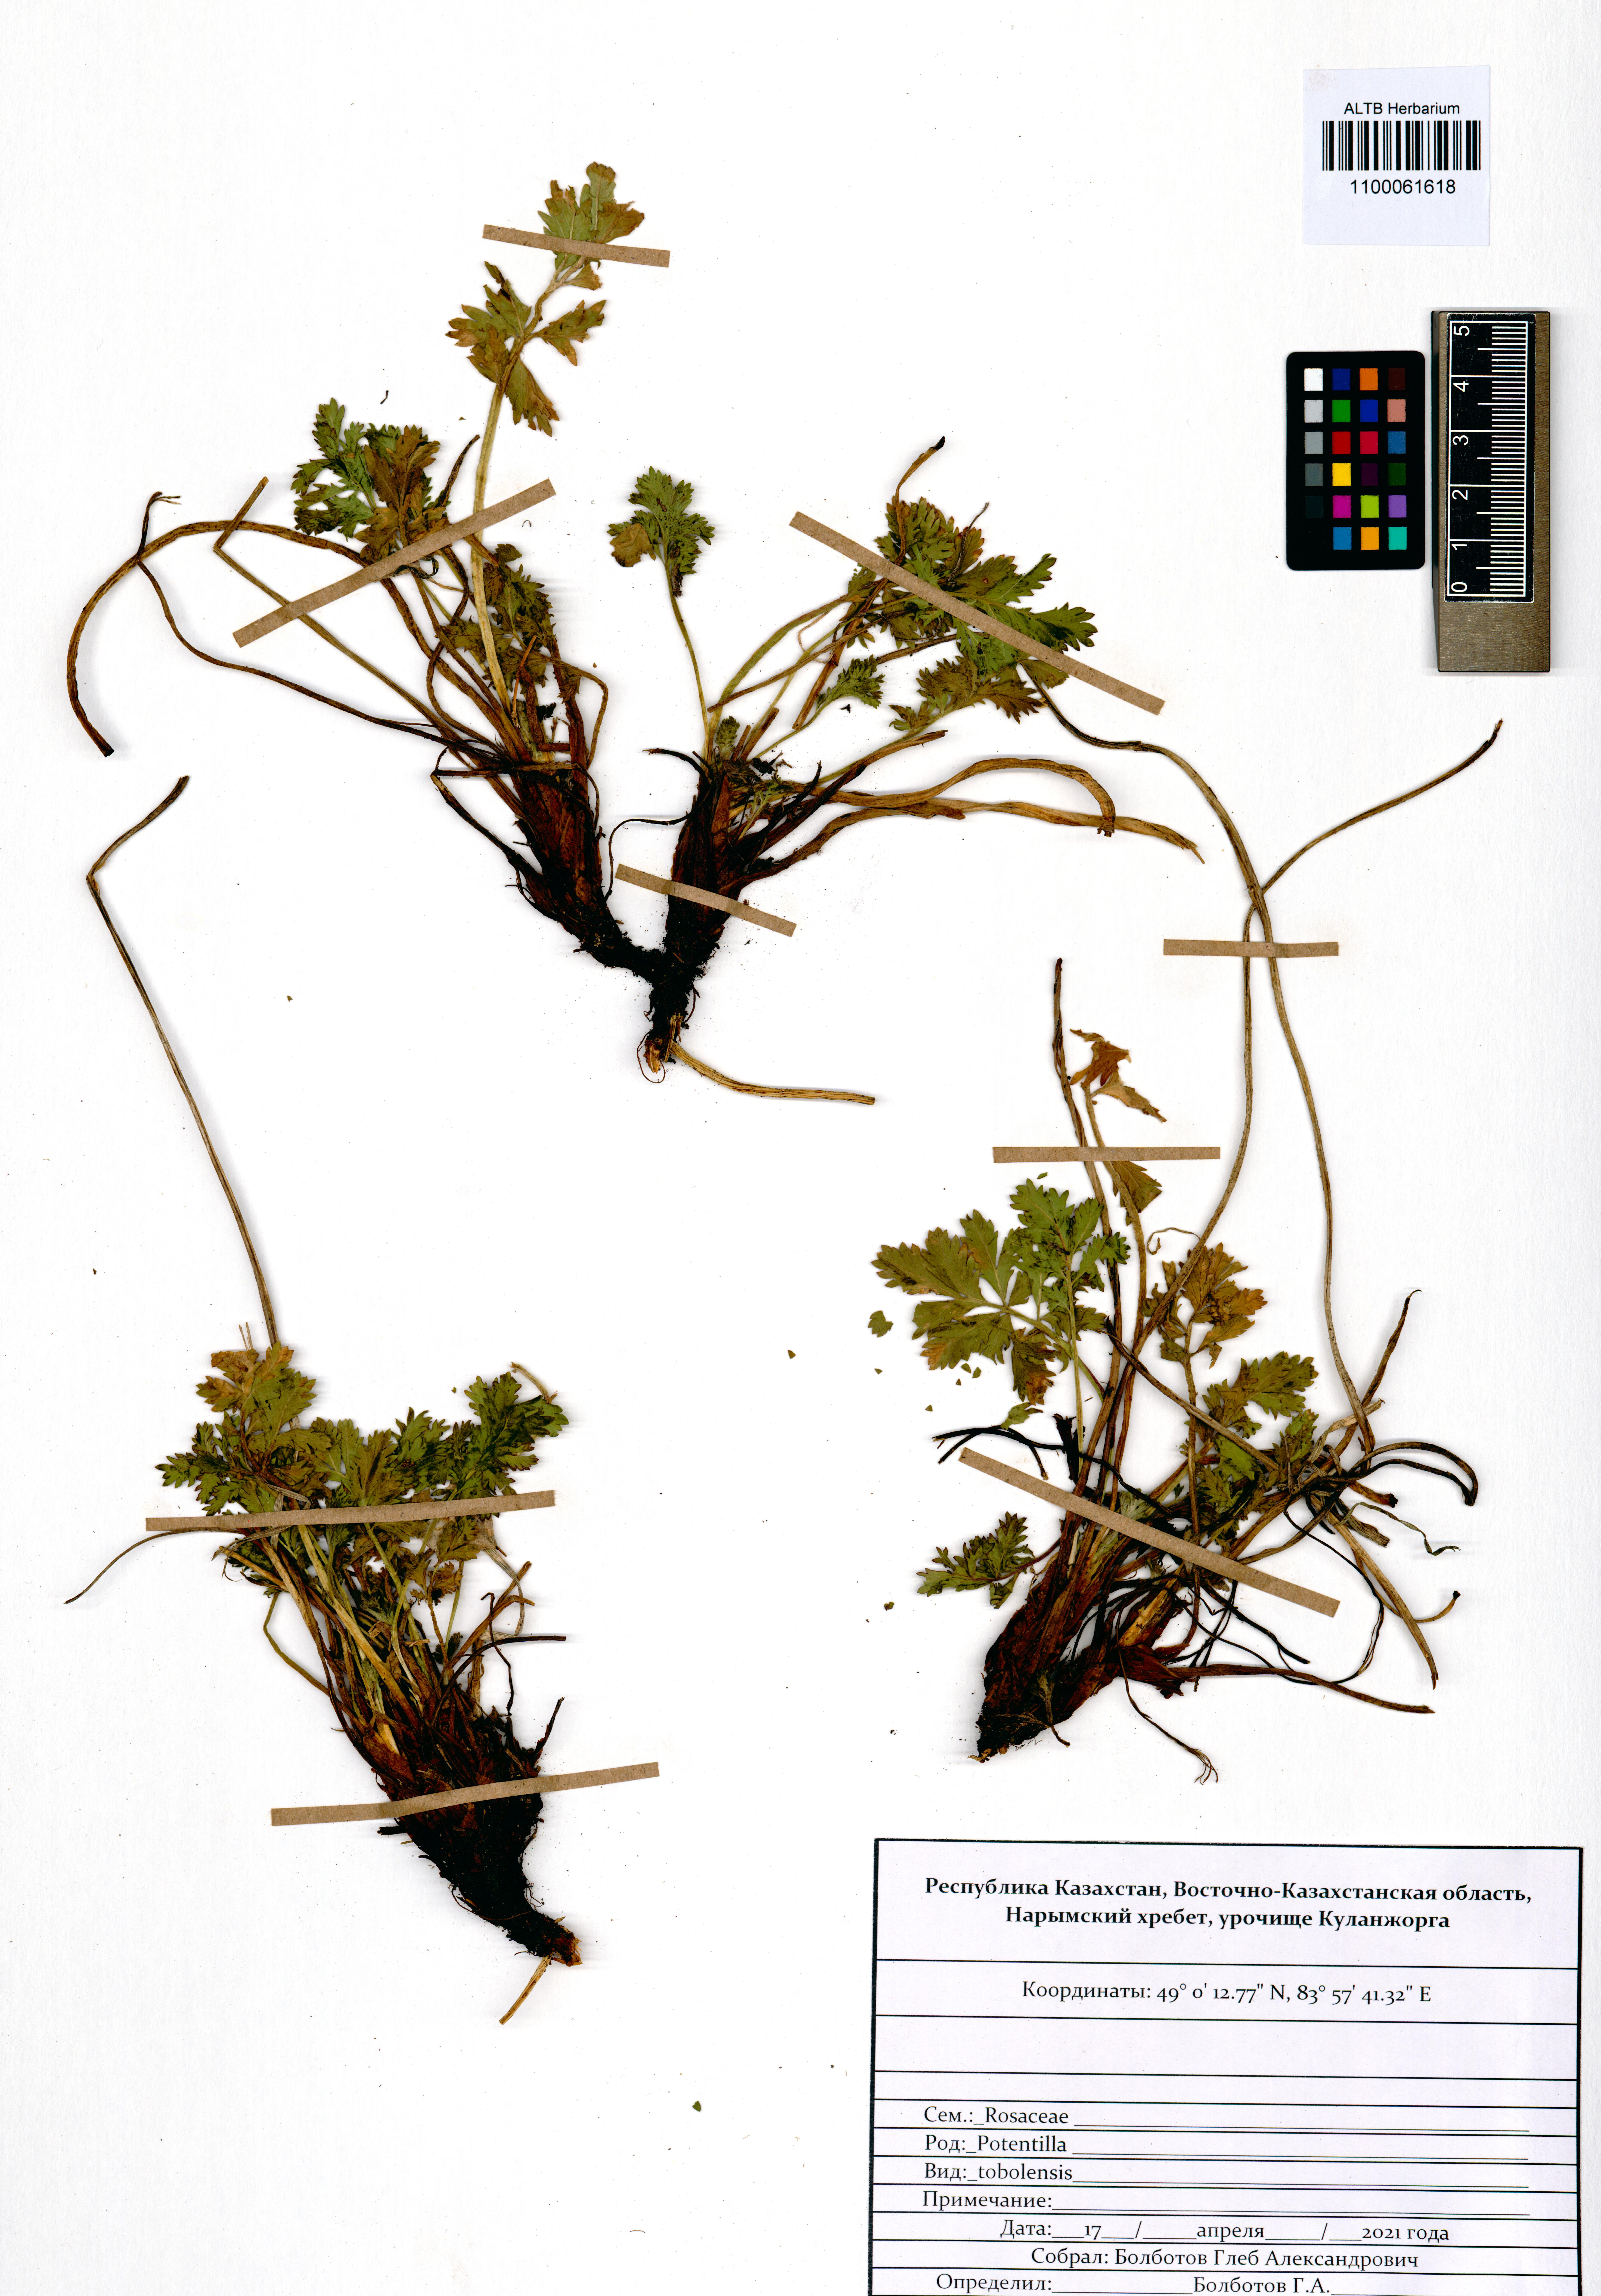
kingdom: Plantae
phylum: Tracheophyta
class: Magnoliopsida
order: Rosales
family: Rosaceae
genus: Potentilla
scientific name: Potentilla tobolensis
